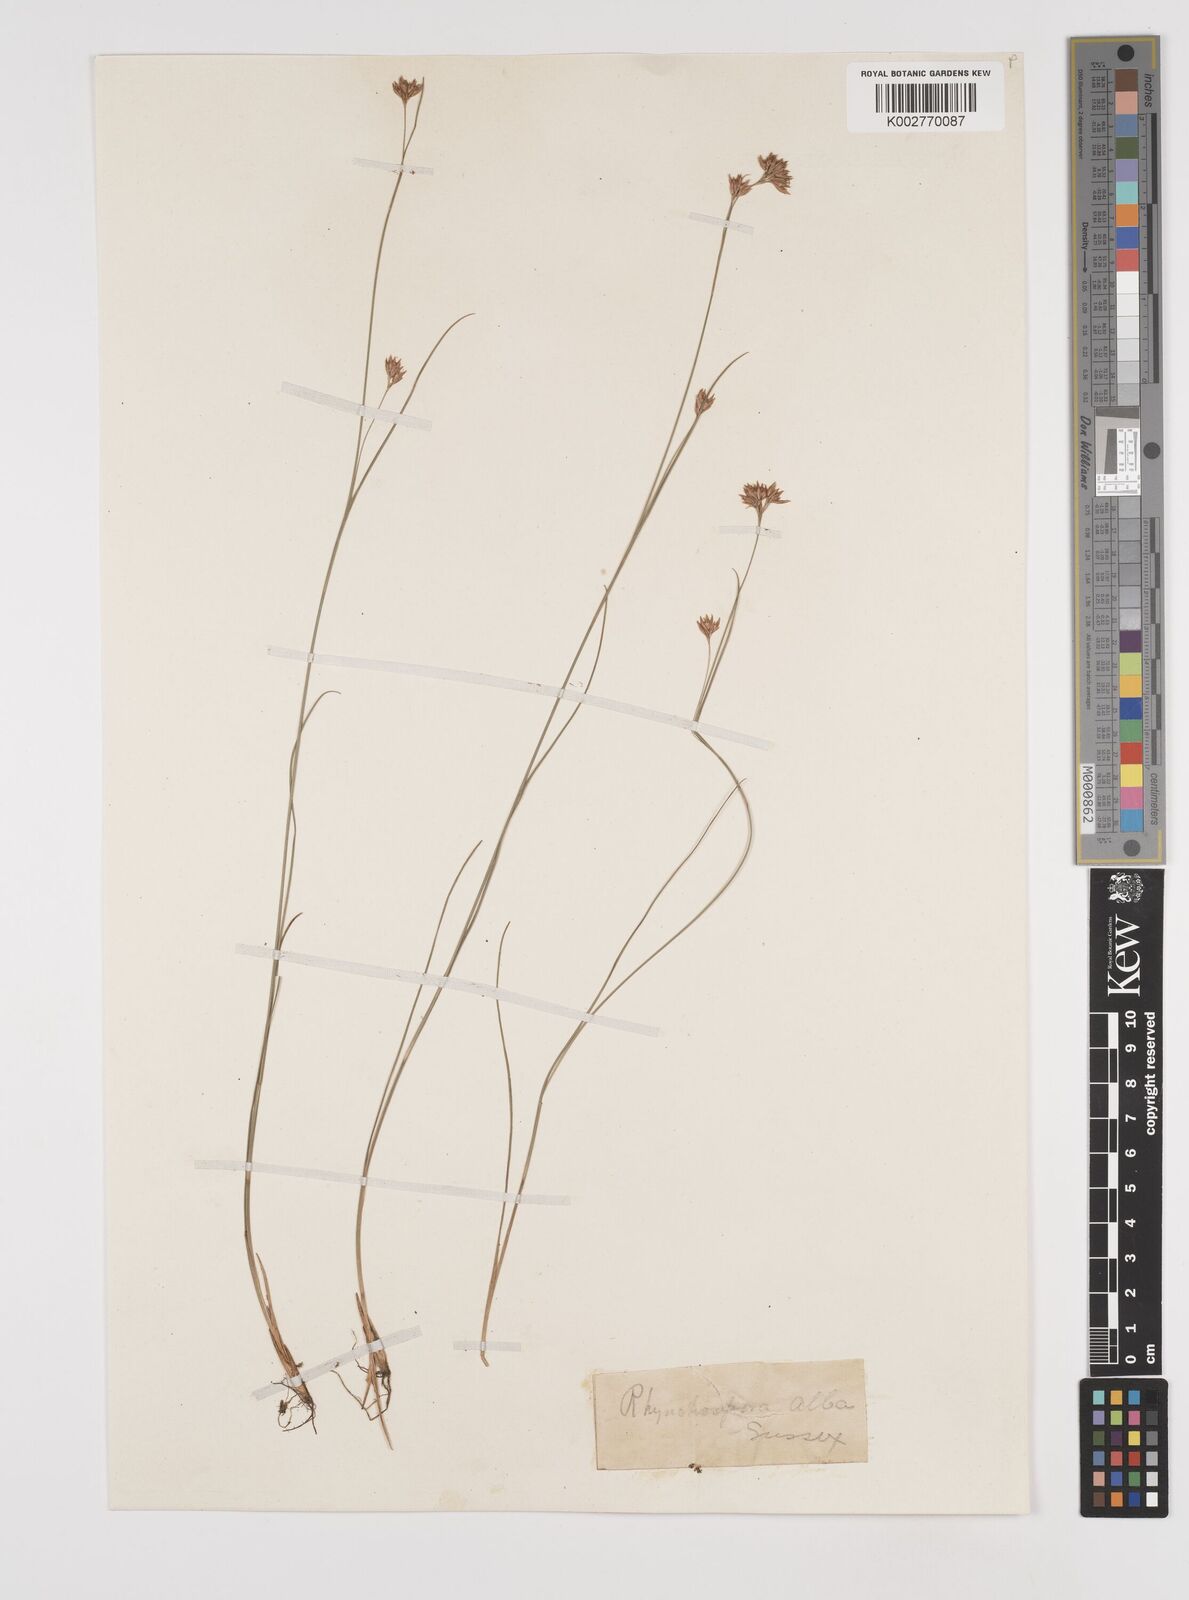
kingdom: Plantae
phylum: Tracheophyta
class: Liliopsida
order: Poales
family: Cyperaceae
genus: Rhynchospora
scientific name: Rhynchospora alba
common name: White beak-sedge
